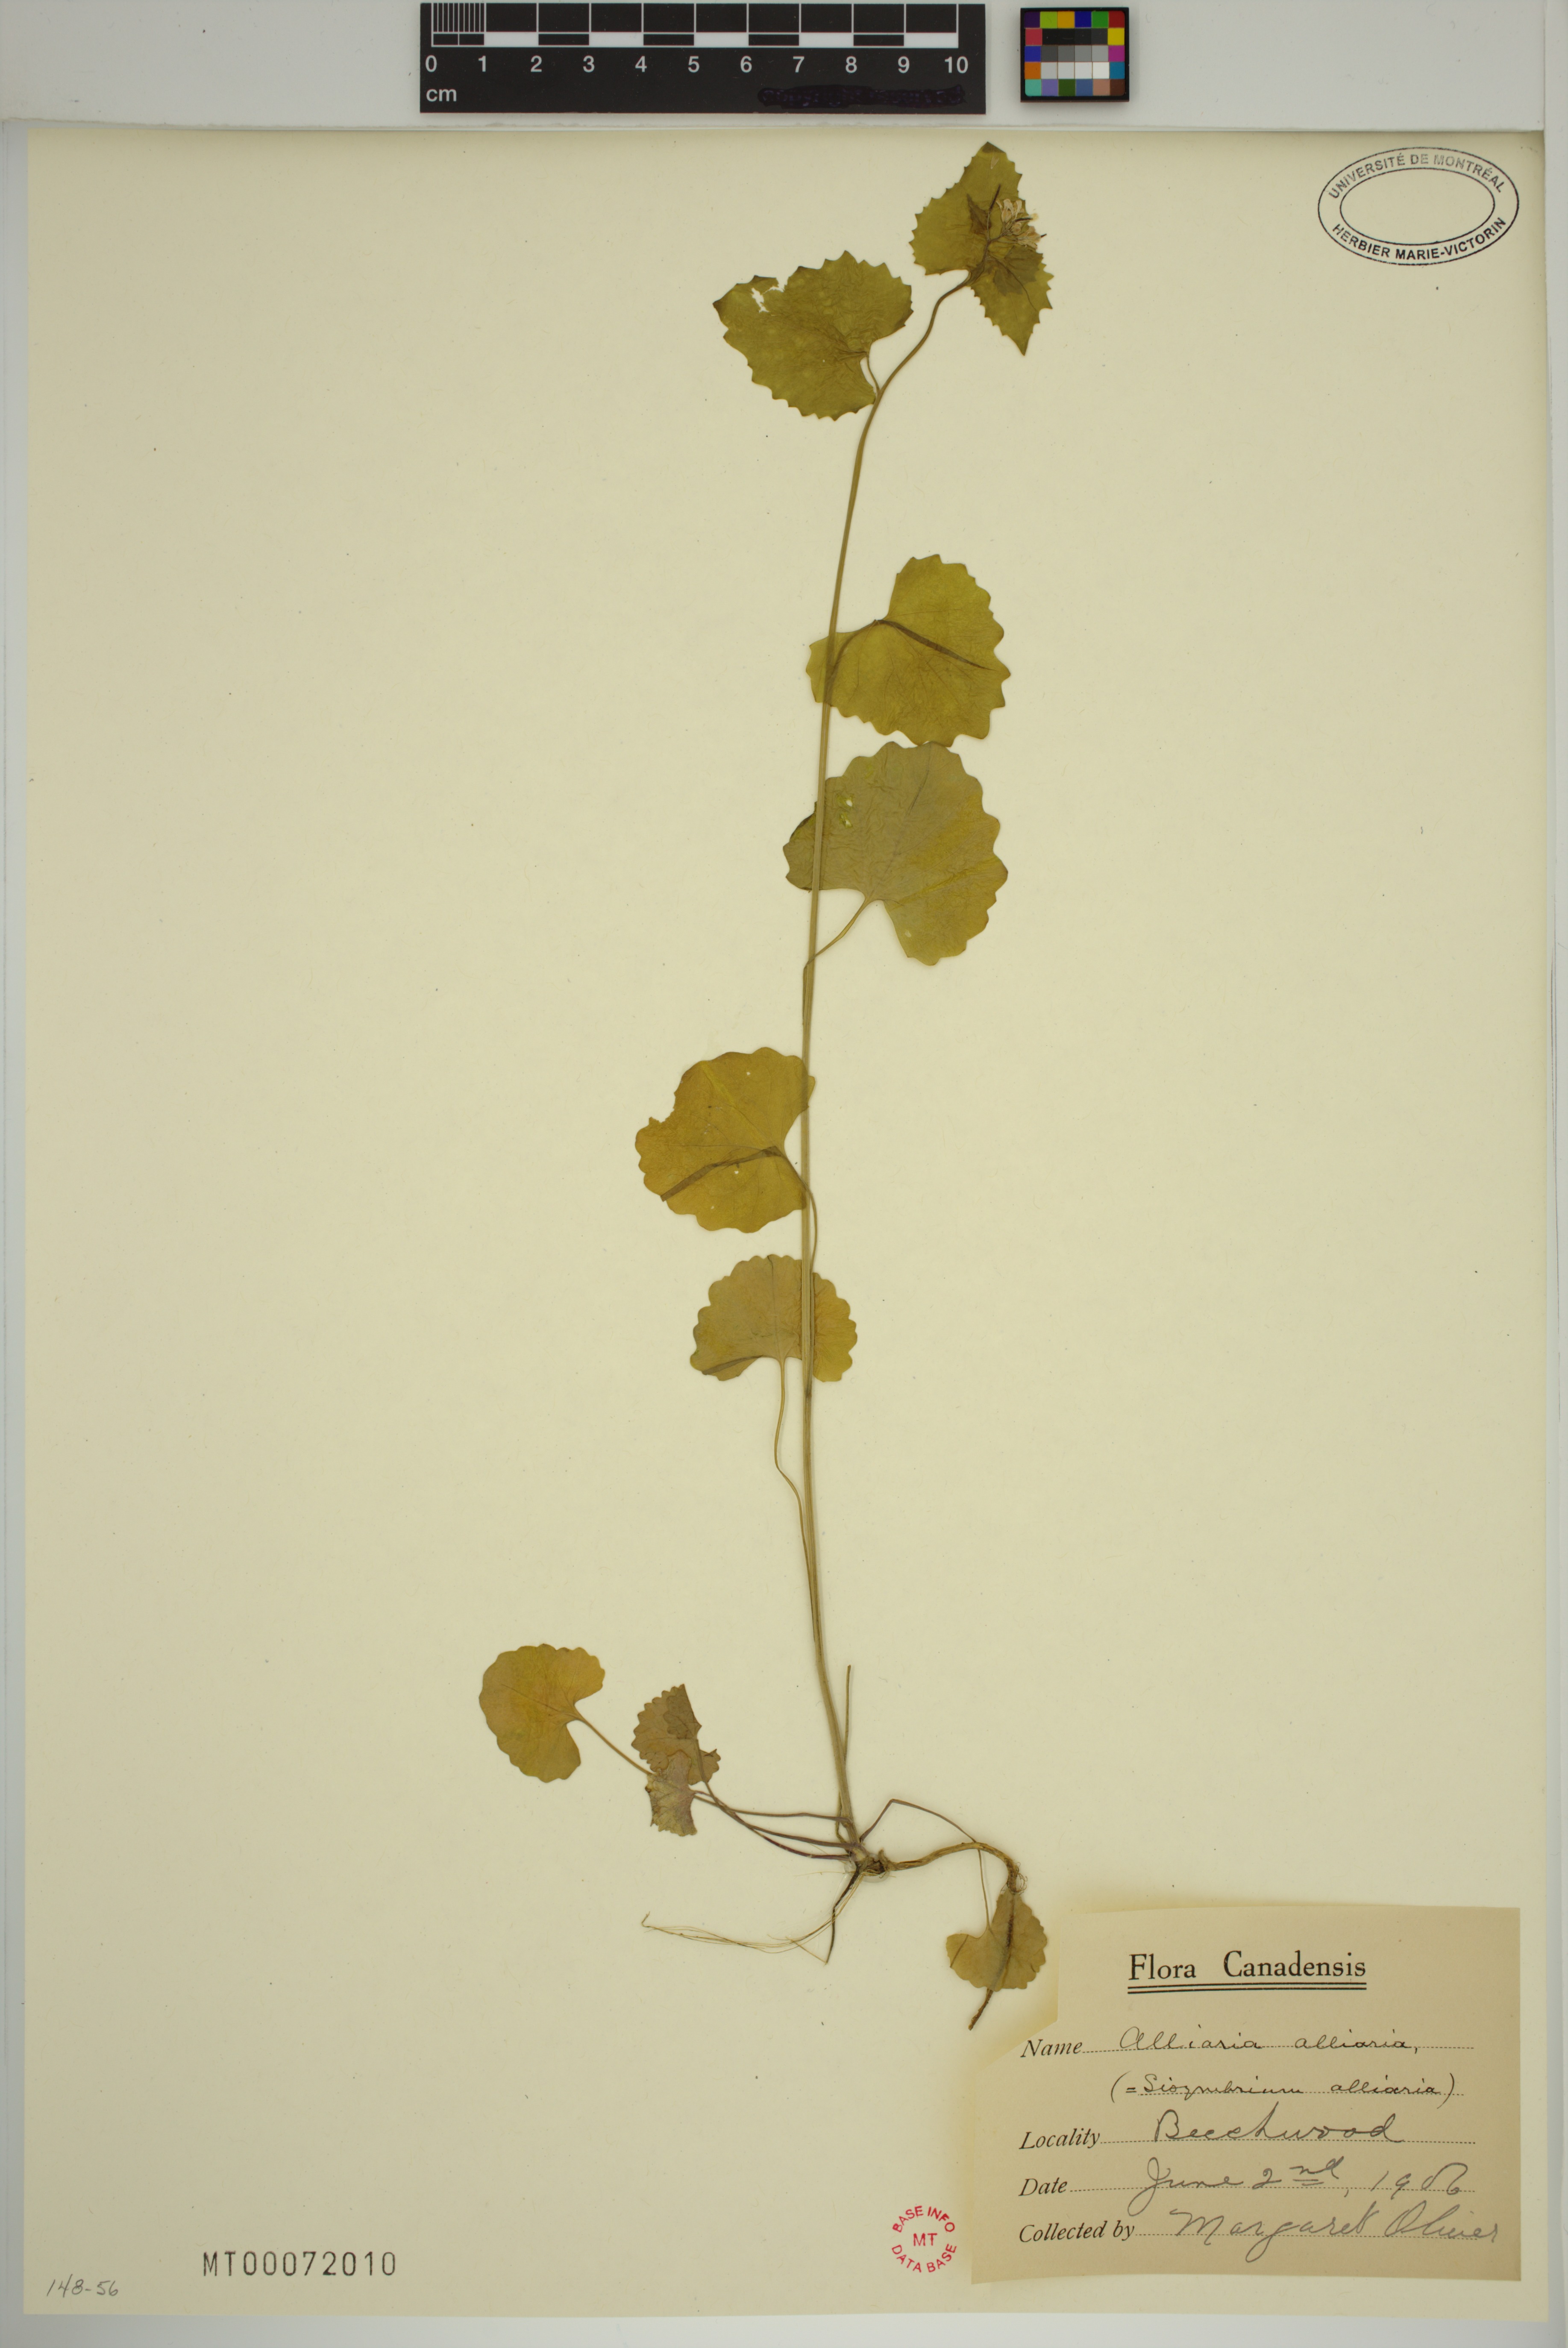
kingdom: Plantae
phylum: Tracheophyta
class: Magnoliopsida
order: Brassicales
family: Brassicaceae
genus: Alliaria
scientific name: Alliaria petiolata
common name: Garlic mustard
